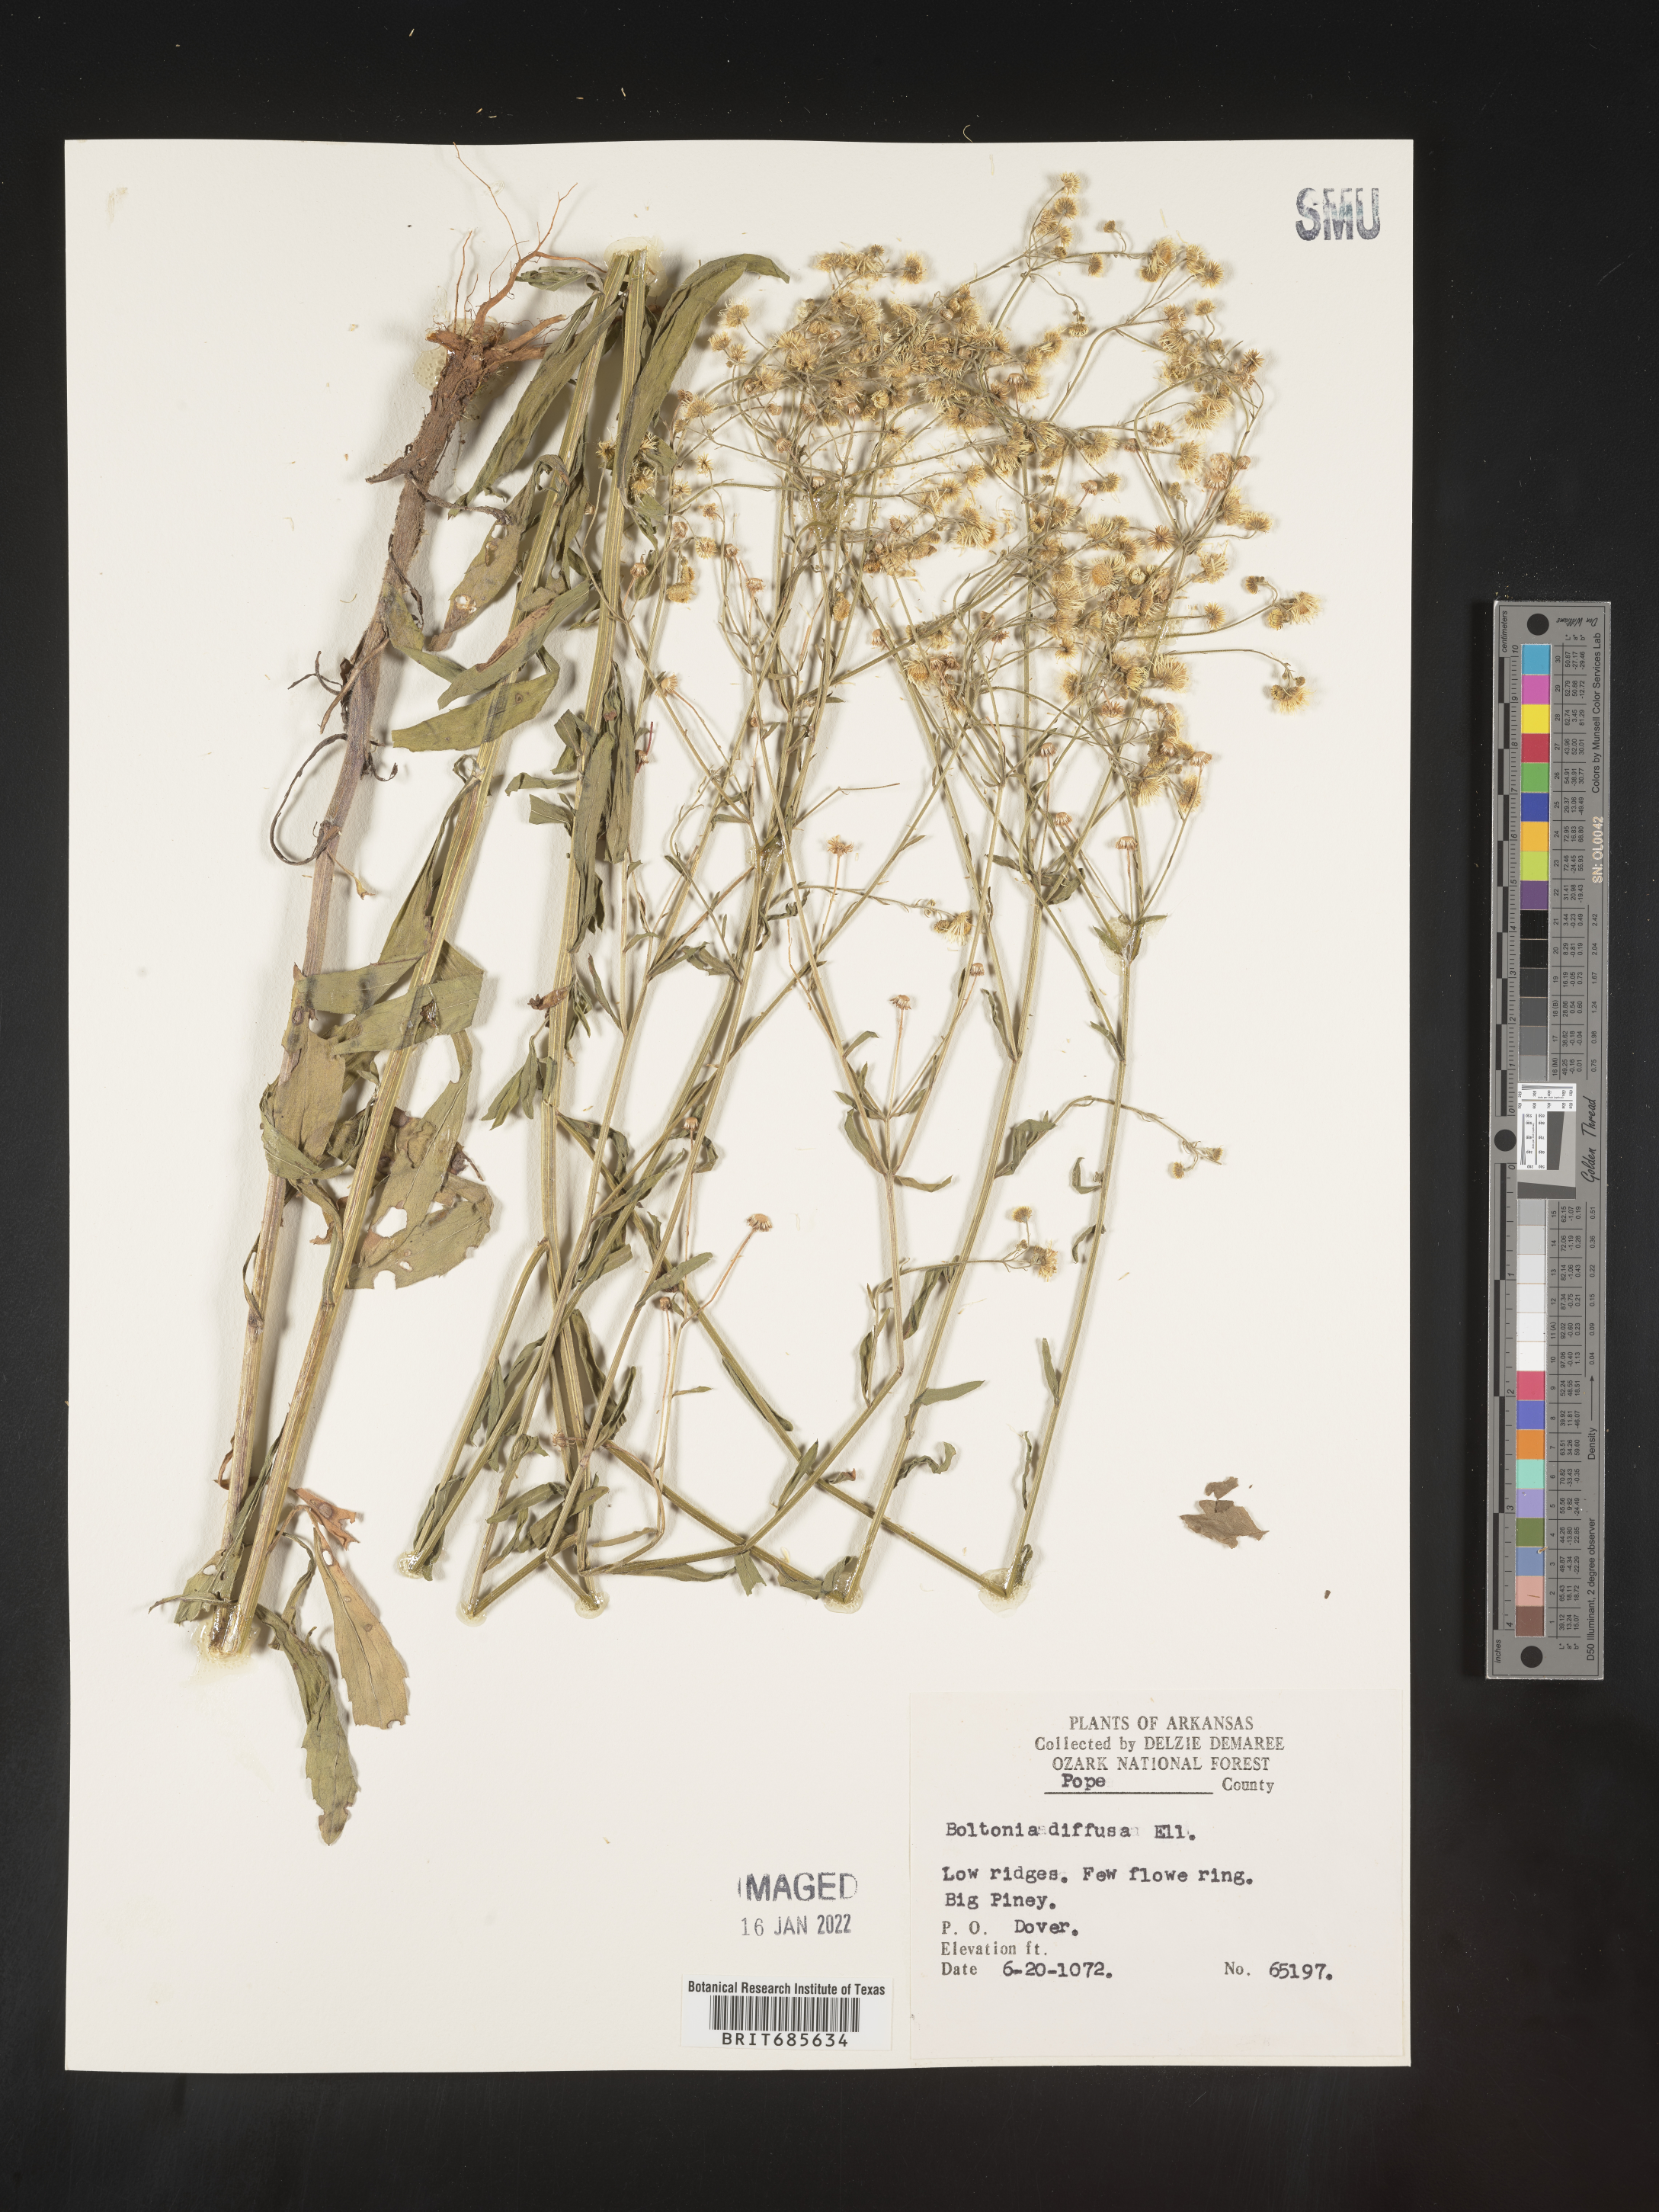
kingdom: Plantae
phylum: Tracheophyta
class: Magnoliopsida
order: Asterales
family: Asteraceae
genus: Boltonia
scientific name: Boltonia diffusa
